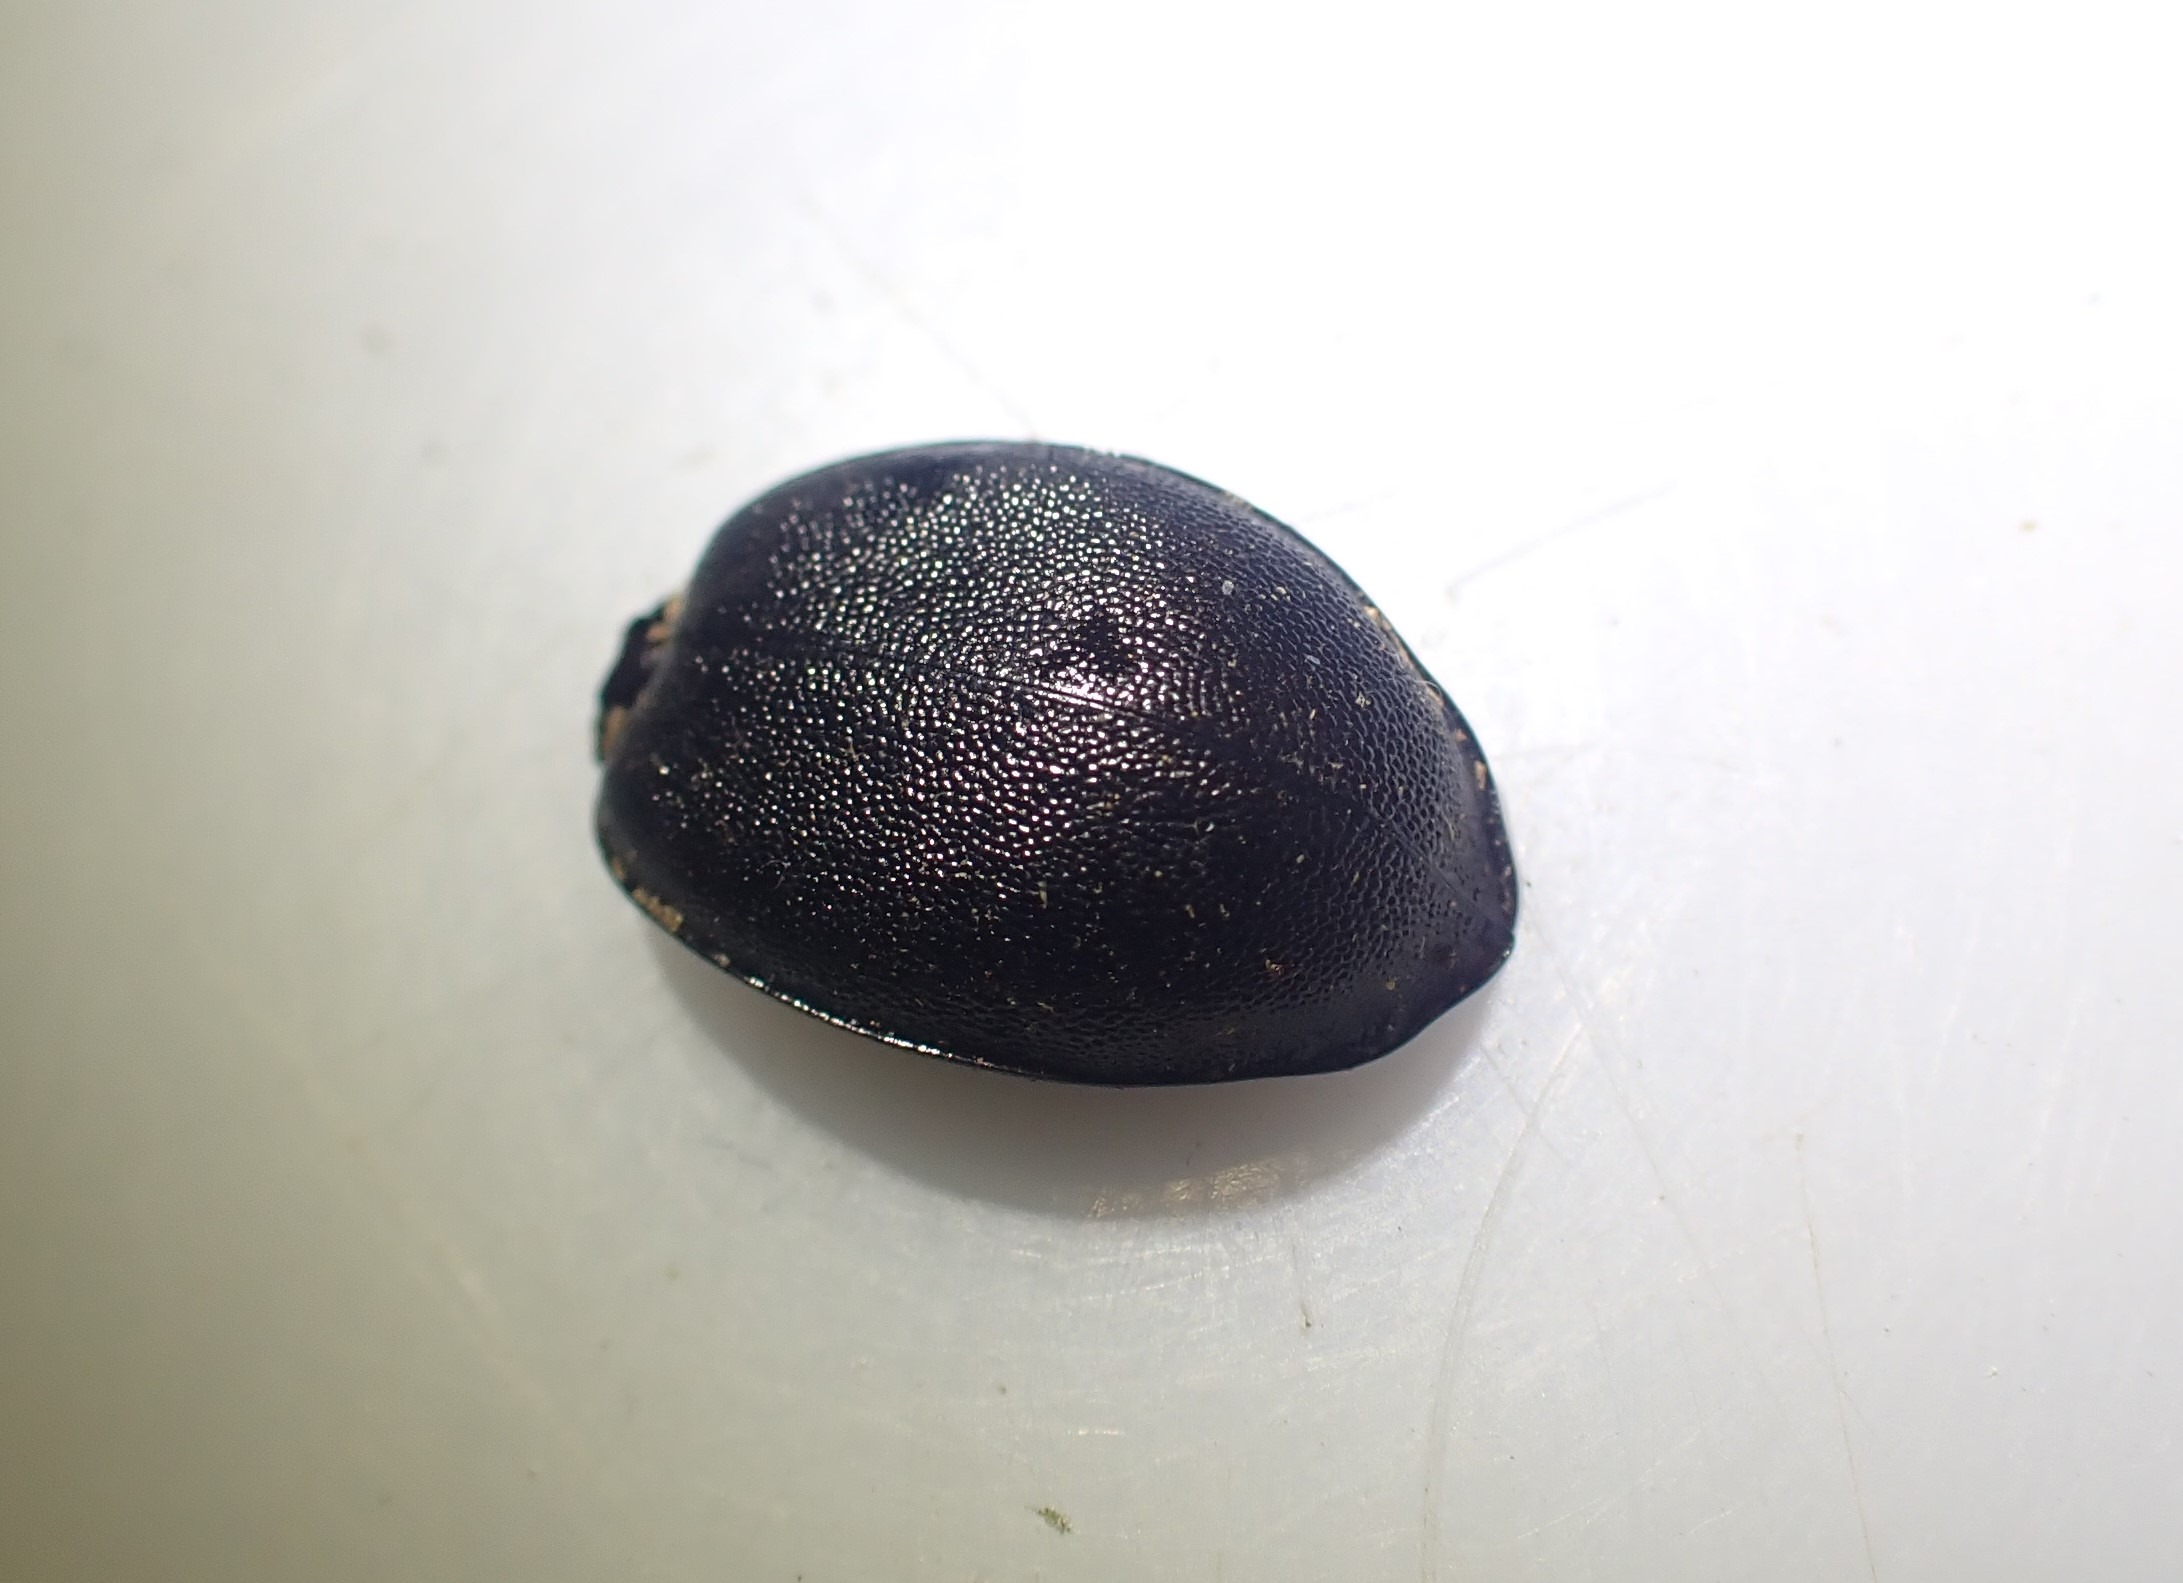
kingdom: Animalia
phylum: Arthropoda
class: Insecta
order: Coleoptera
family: Carabidae
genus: Cychrus
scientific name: Cychrus caraboides
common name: Sneglerøver
